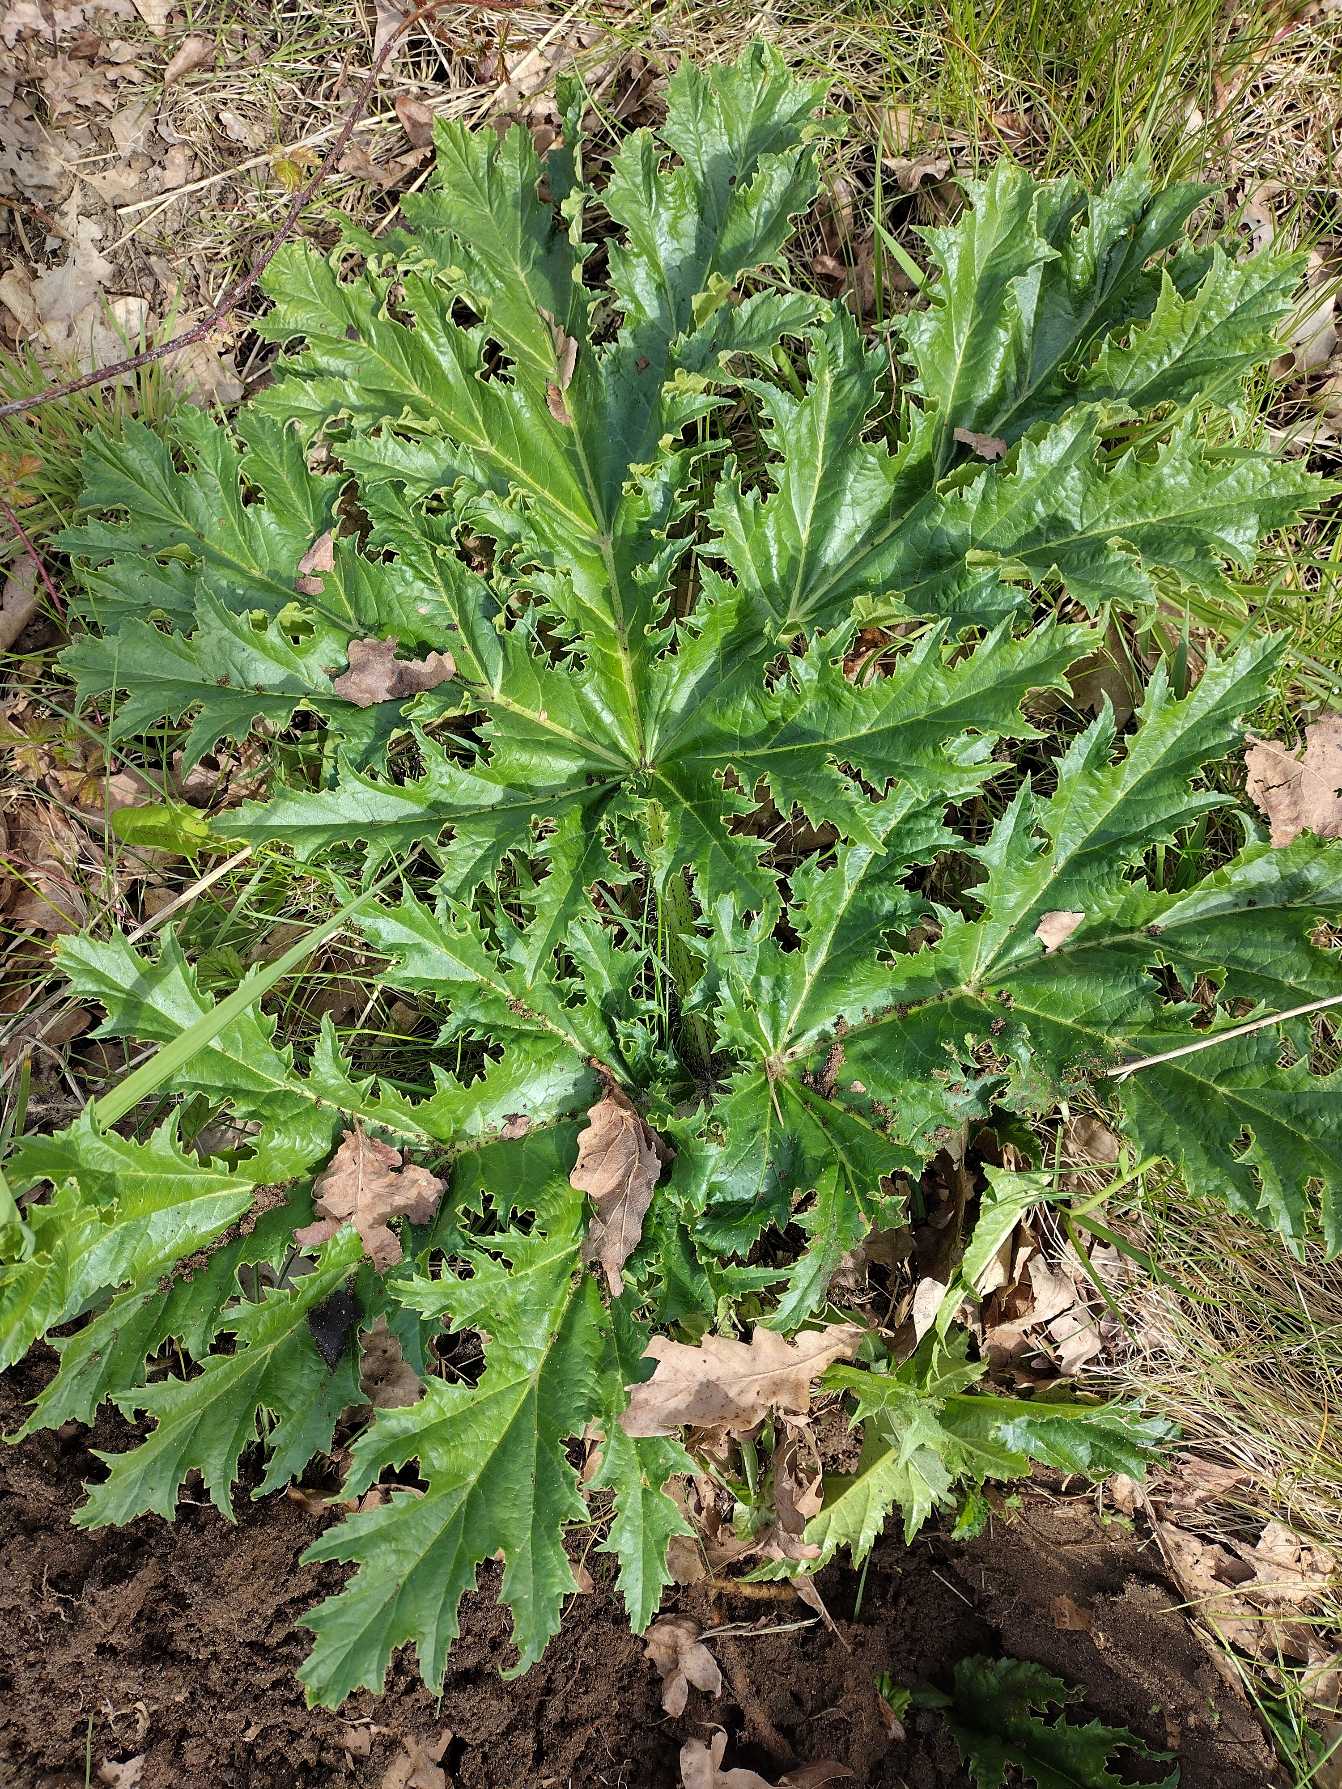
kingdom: Plantae
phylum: Tracheophyta
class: Magnoliopsida
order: Apiales
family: Apiaceae
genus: Heracleum
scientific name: Heracleum mantegazzianum
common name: Kæmpe-bjørneklo
